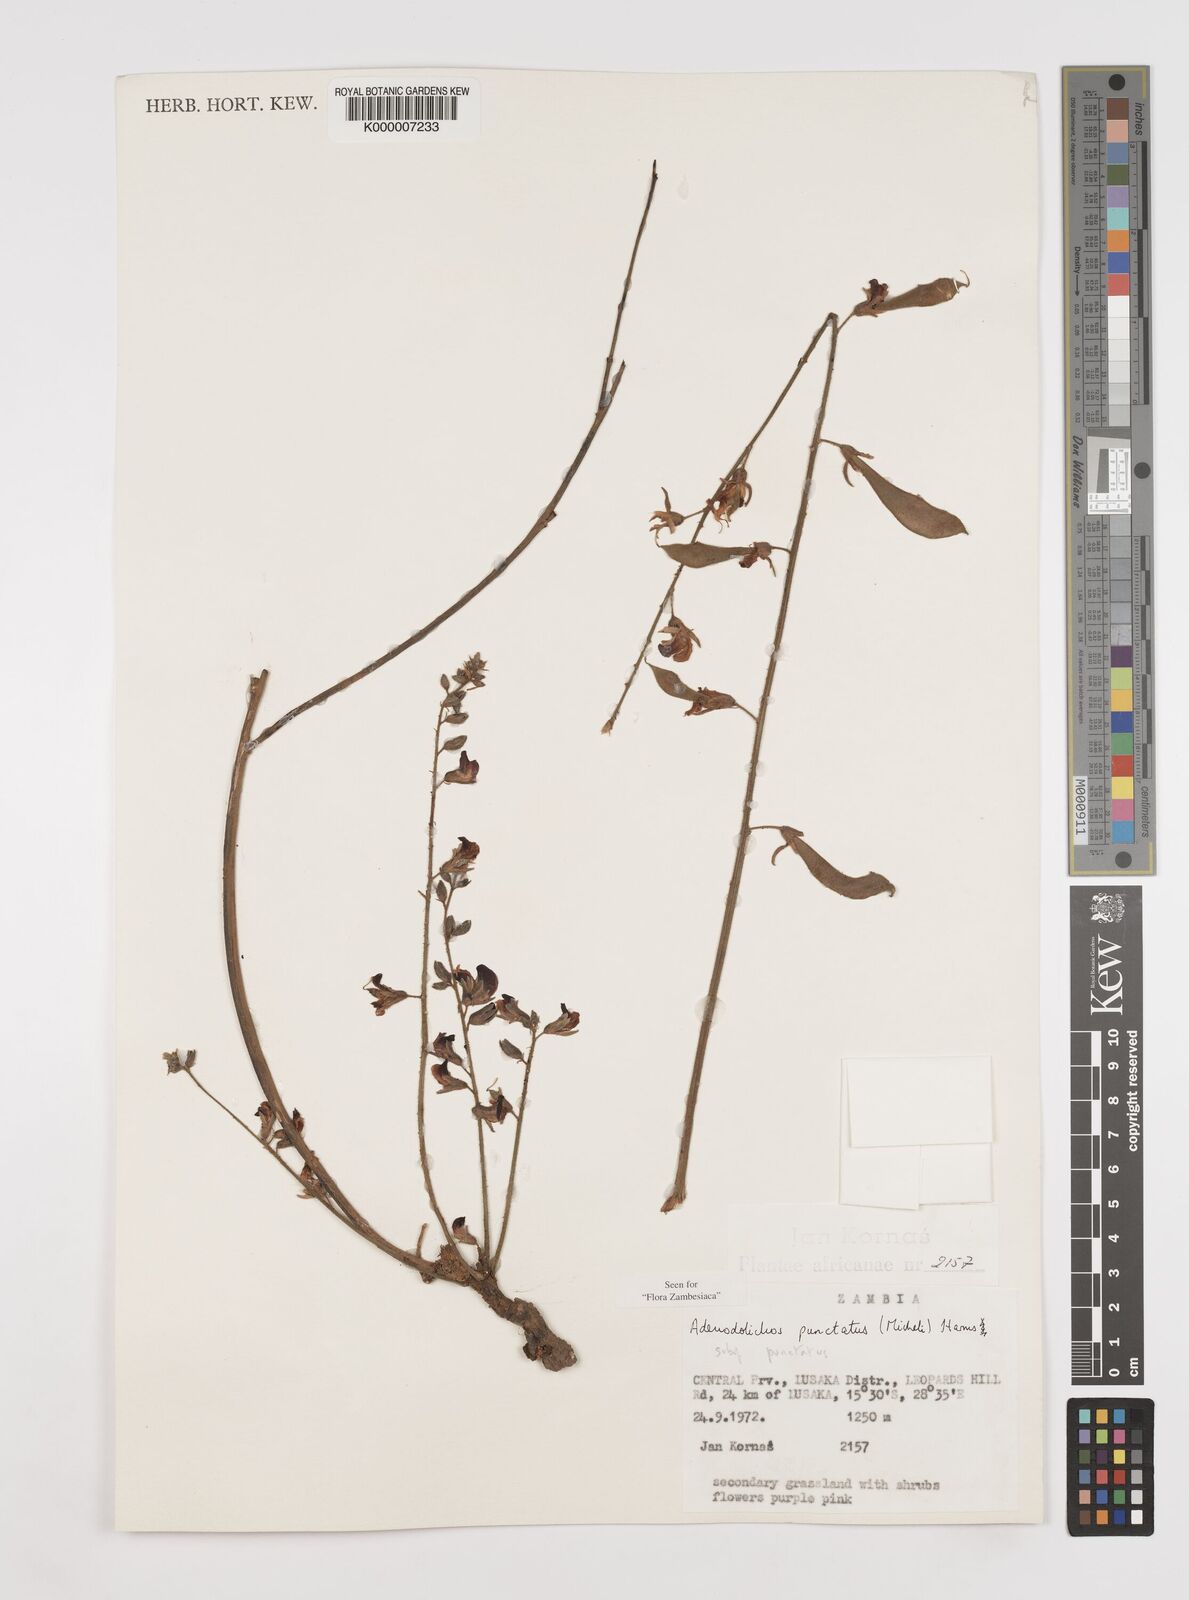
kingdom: Plantae
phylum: Tracheophyta
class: Magnoliopsida
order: Fabales
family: Fabaceae
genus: Adenodolichos
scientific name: Adenodolichos punctatus
